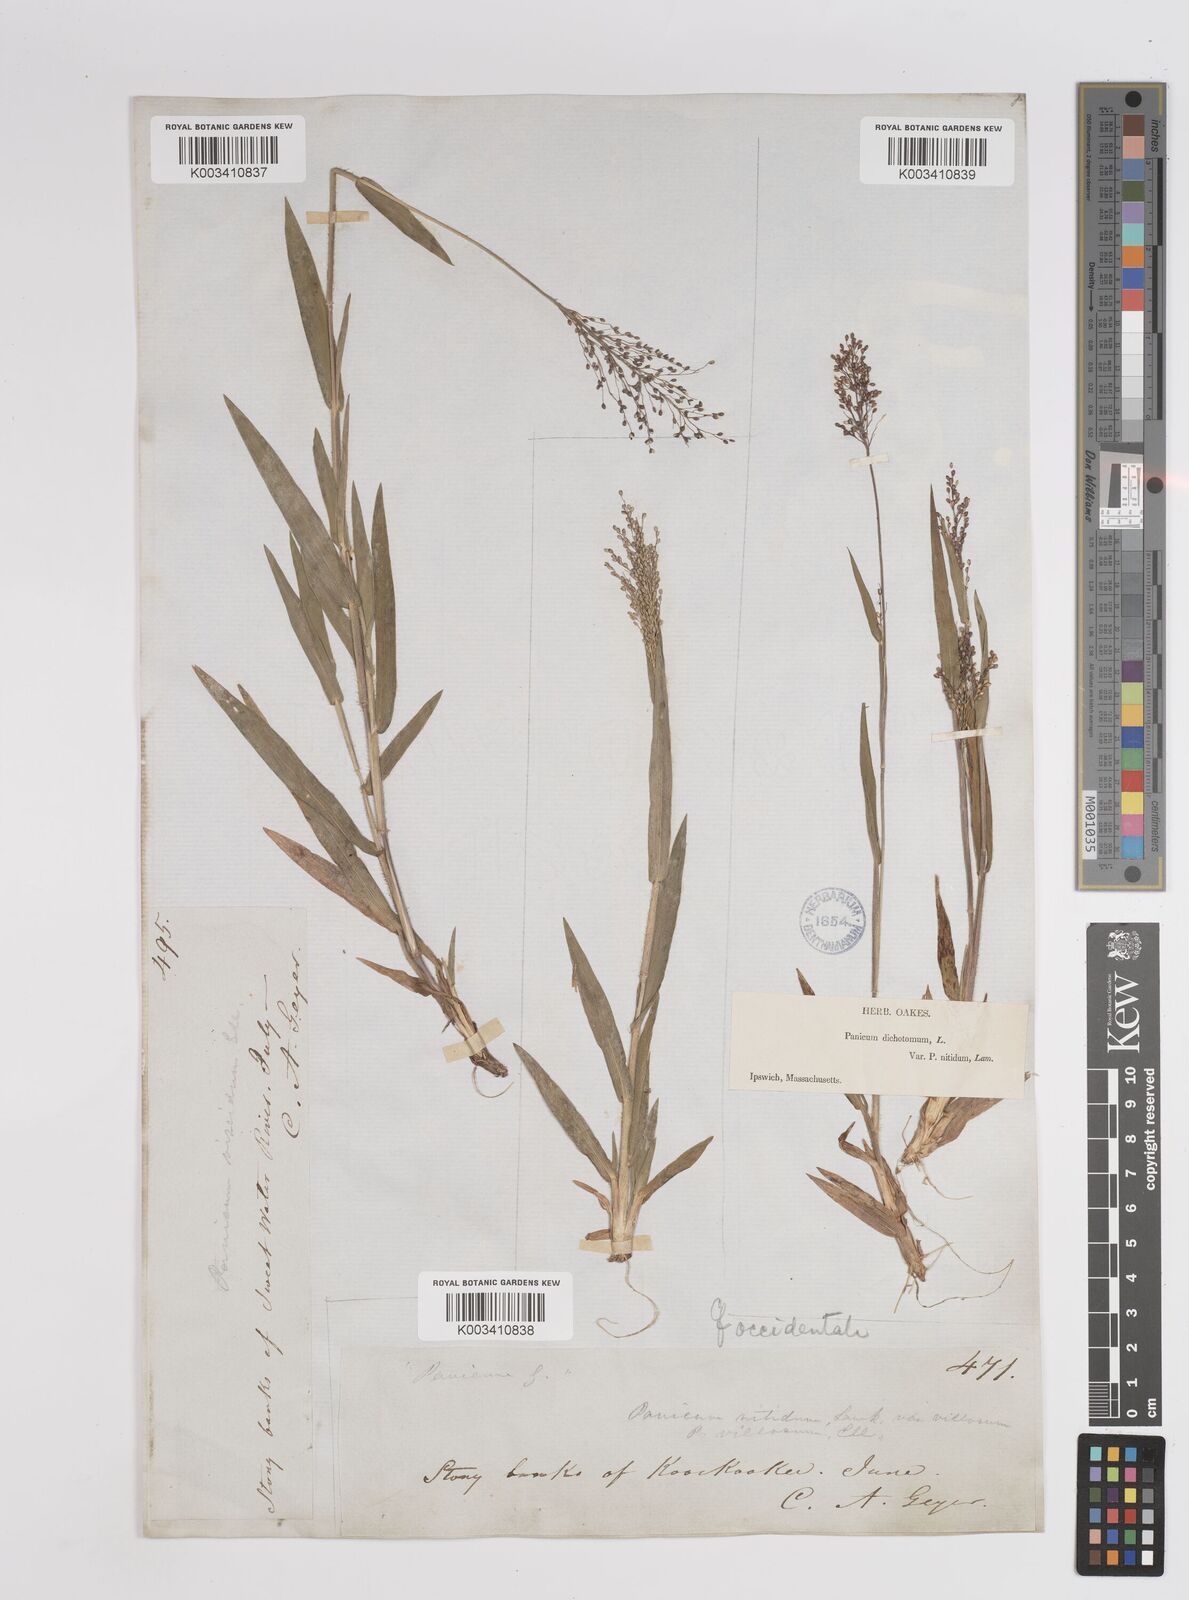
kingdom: Plantae
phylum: Tracheophyta
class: Liliopsida
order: Poales
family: Poaceae
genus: Dichanthelium
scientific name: Dichanthelium implicatum
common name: Slender-stemmed panicgrass
